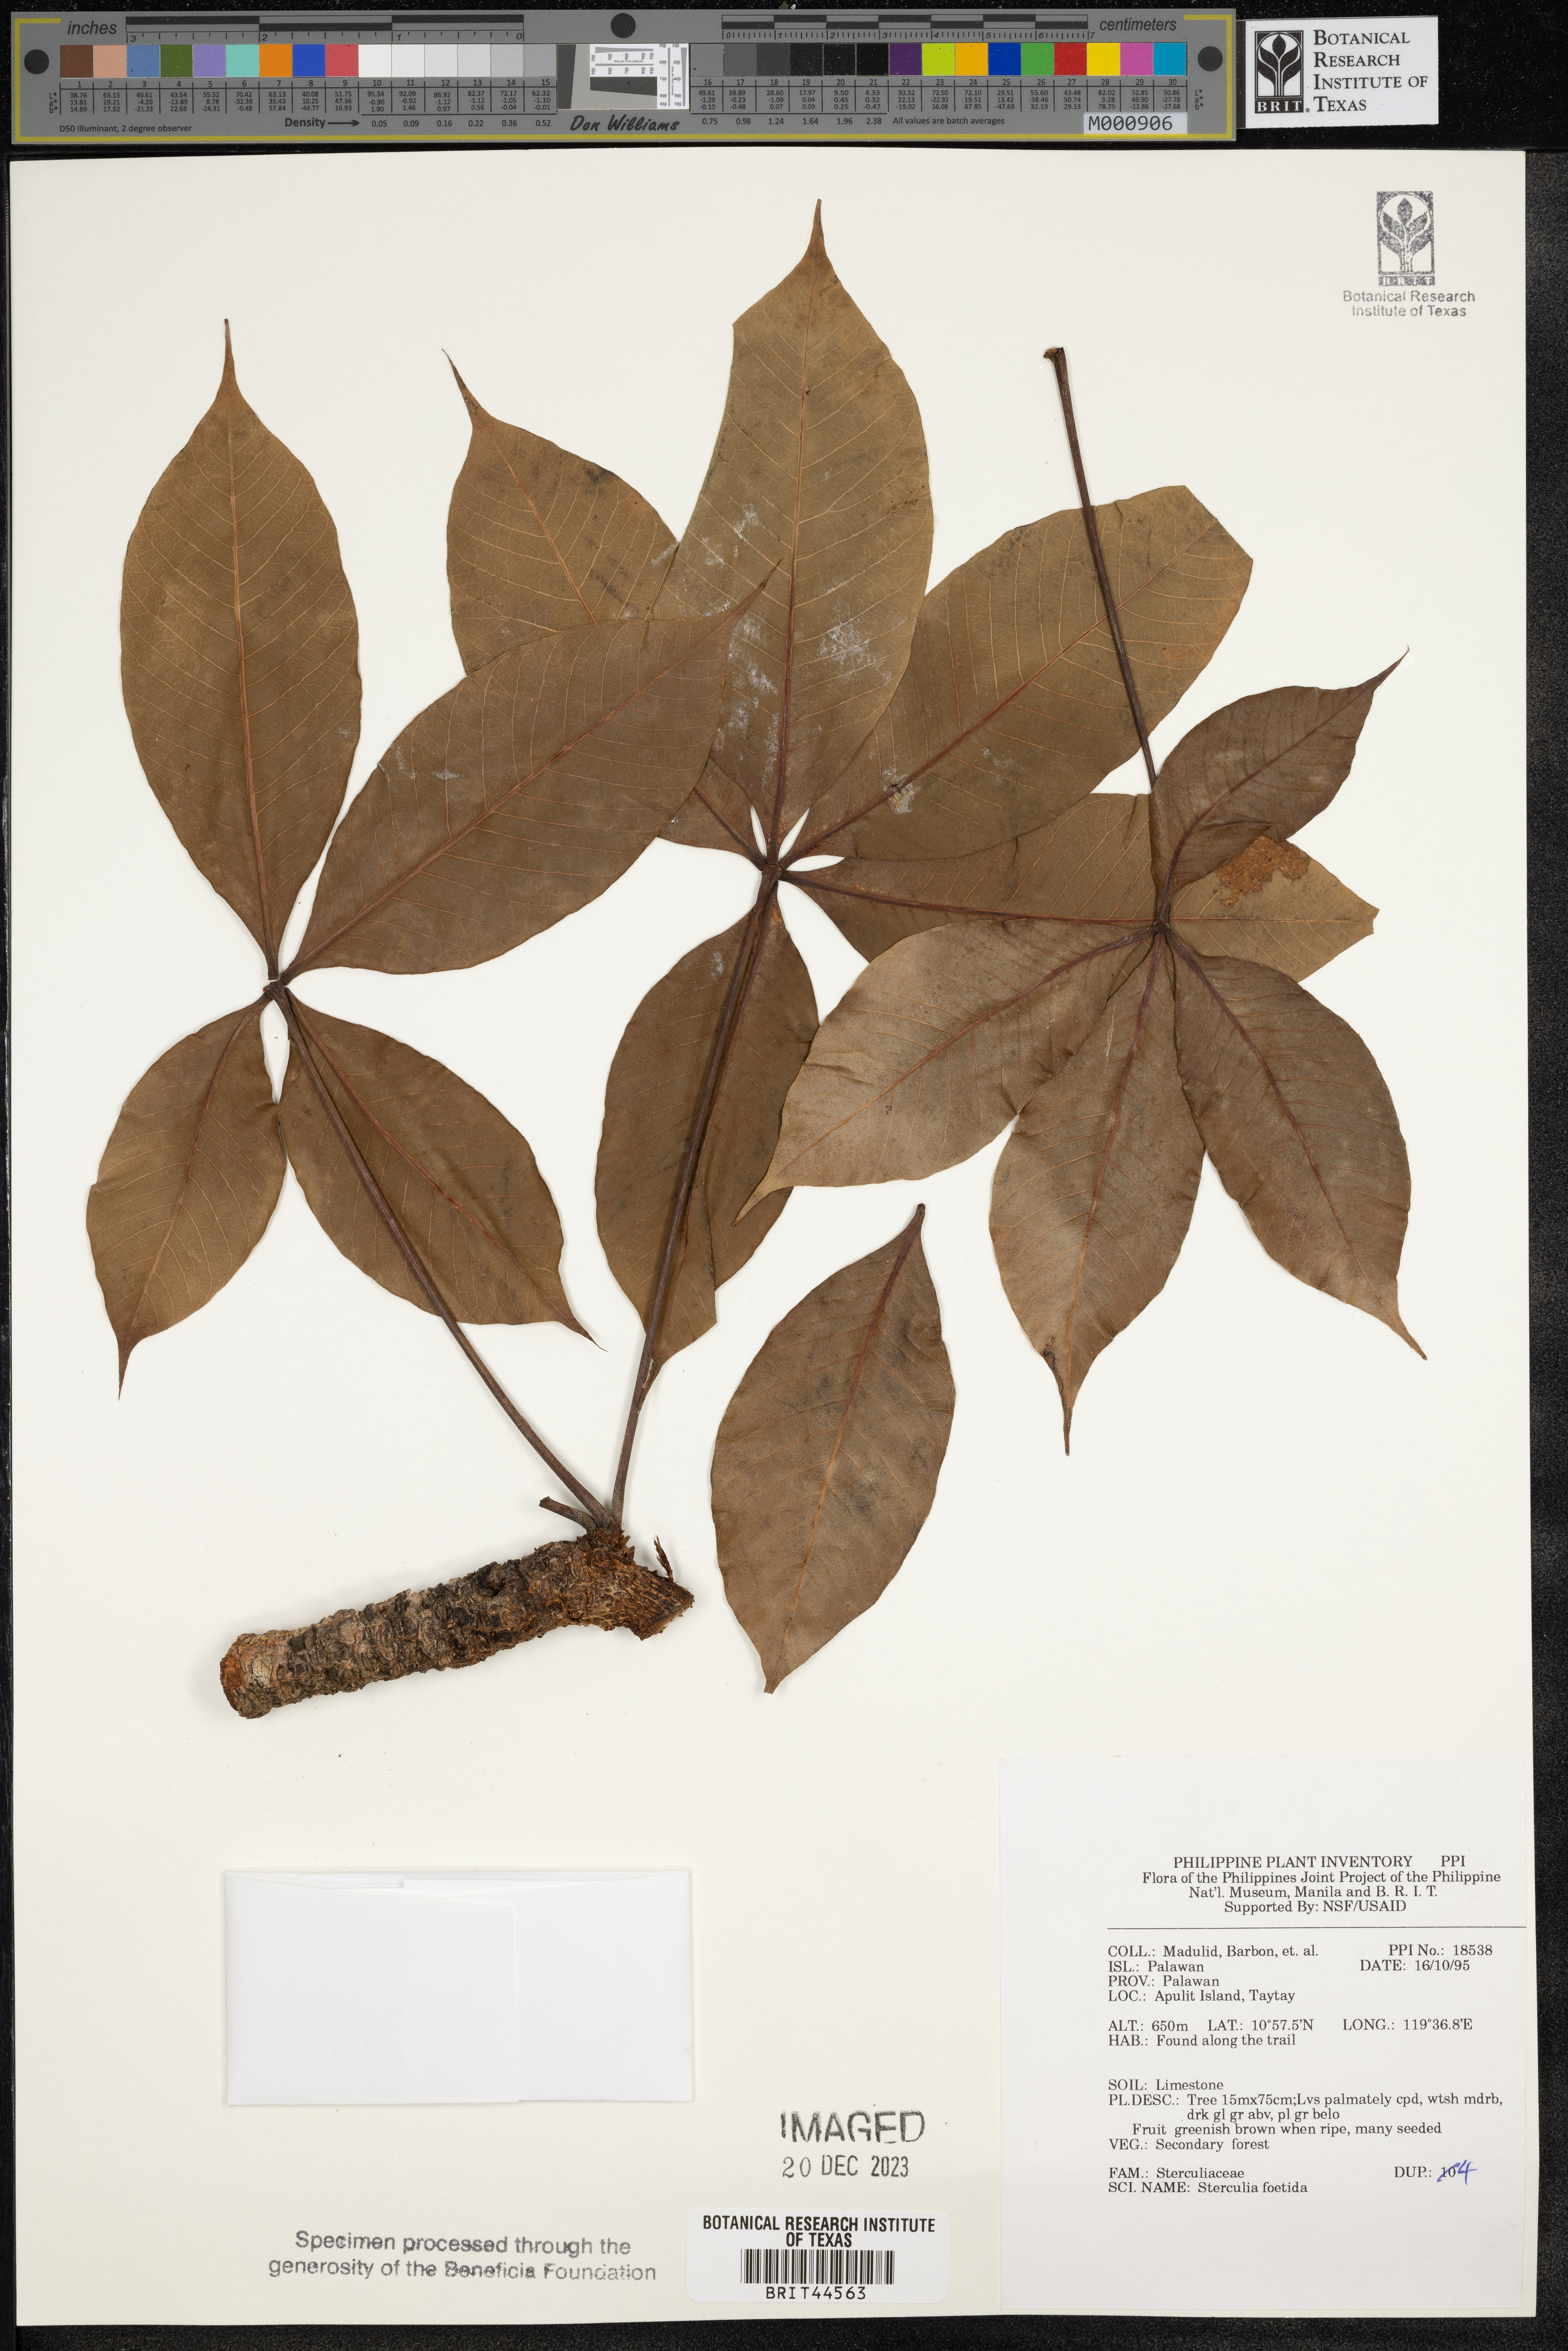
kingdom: Plantae
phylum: Tracheophyta
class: Magnoliopsida
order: Malvales
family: Malvaceae
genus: Sterculia
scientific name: Sterculia foetida
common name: Hazel sterculia
